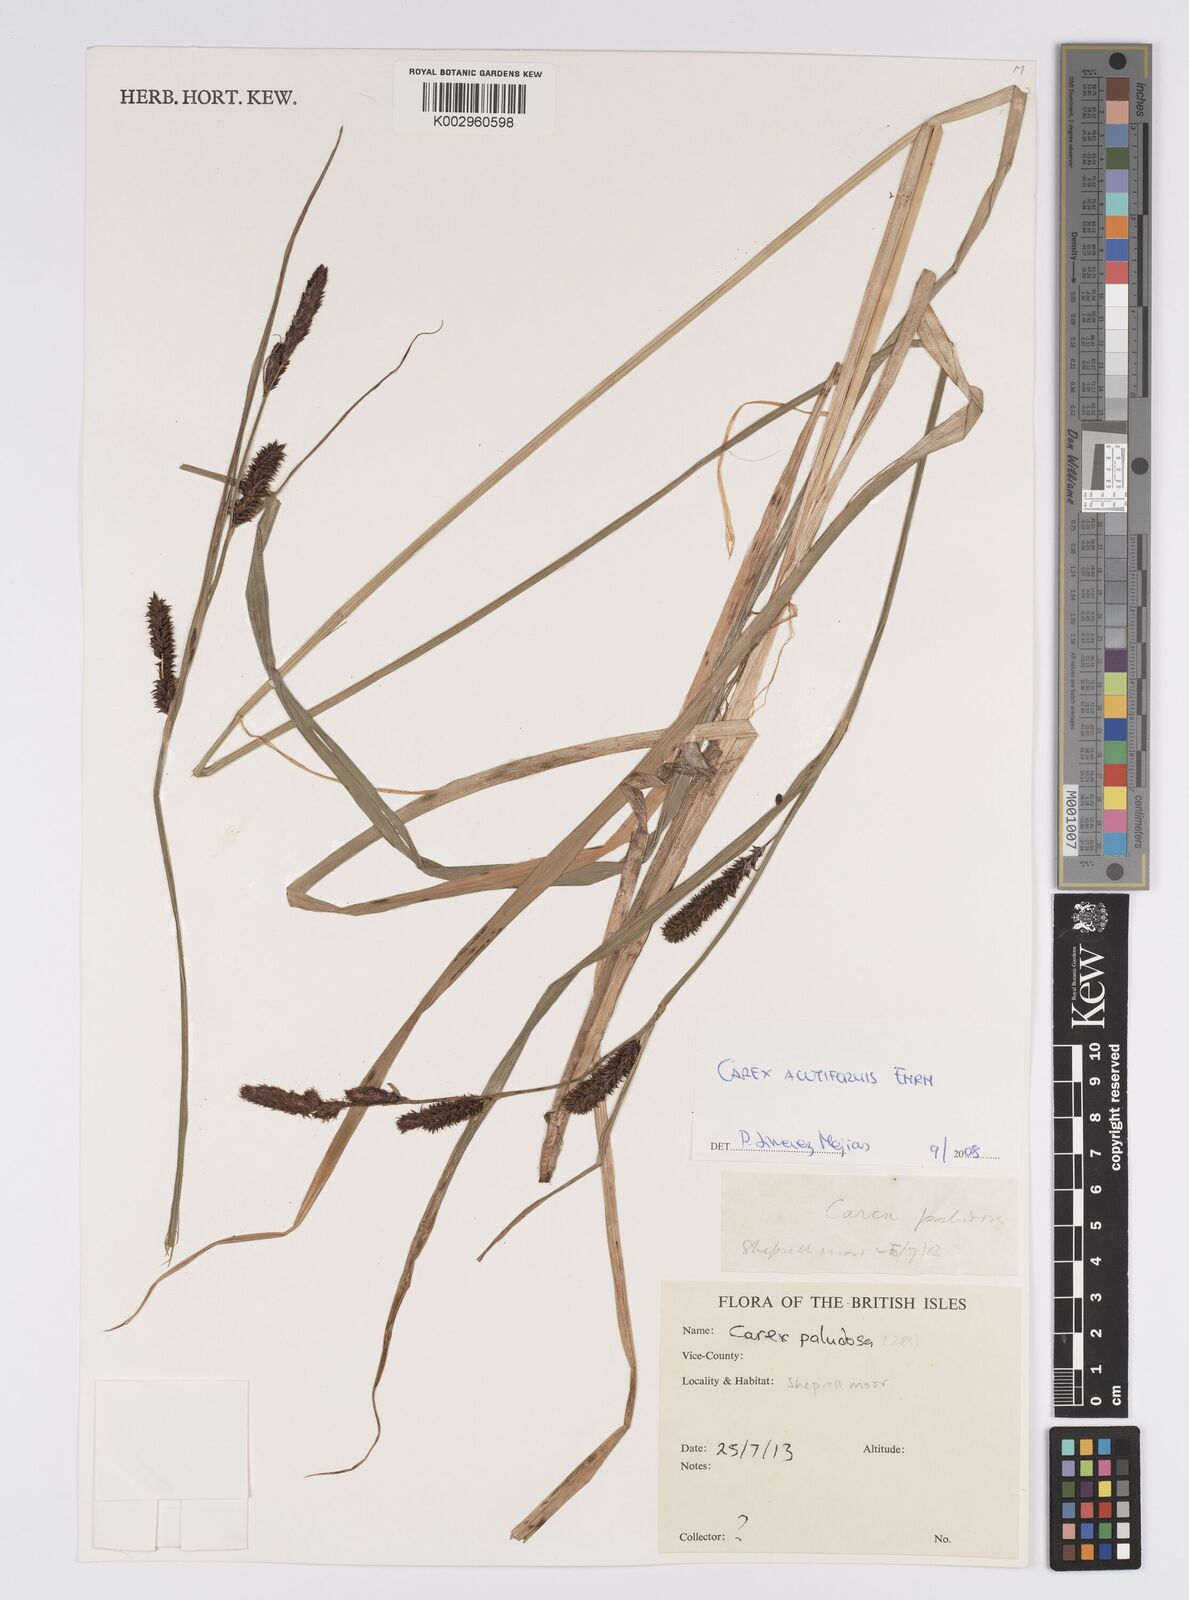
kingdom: Plantae
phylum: Tracheophyta
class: Liliopsida
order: Poales
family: Cyperaceae
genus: Carex
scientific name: Carex acutiformis
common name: Lesser pond-sedge
